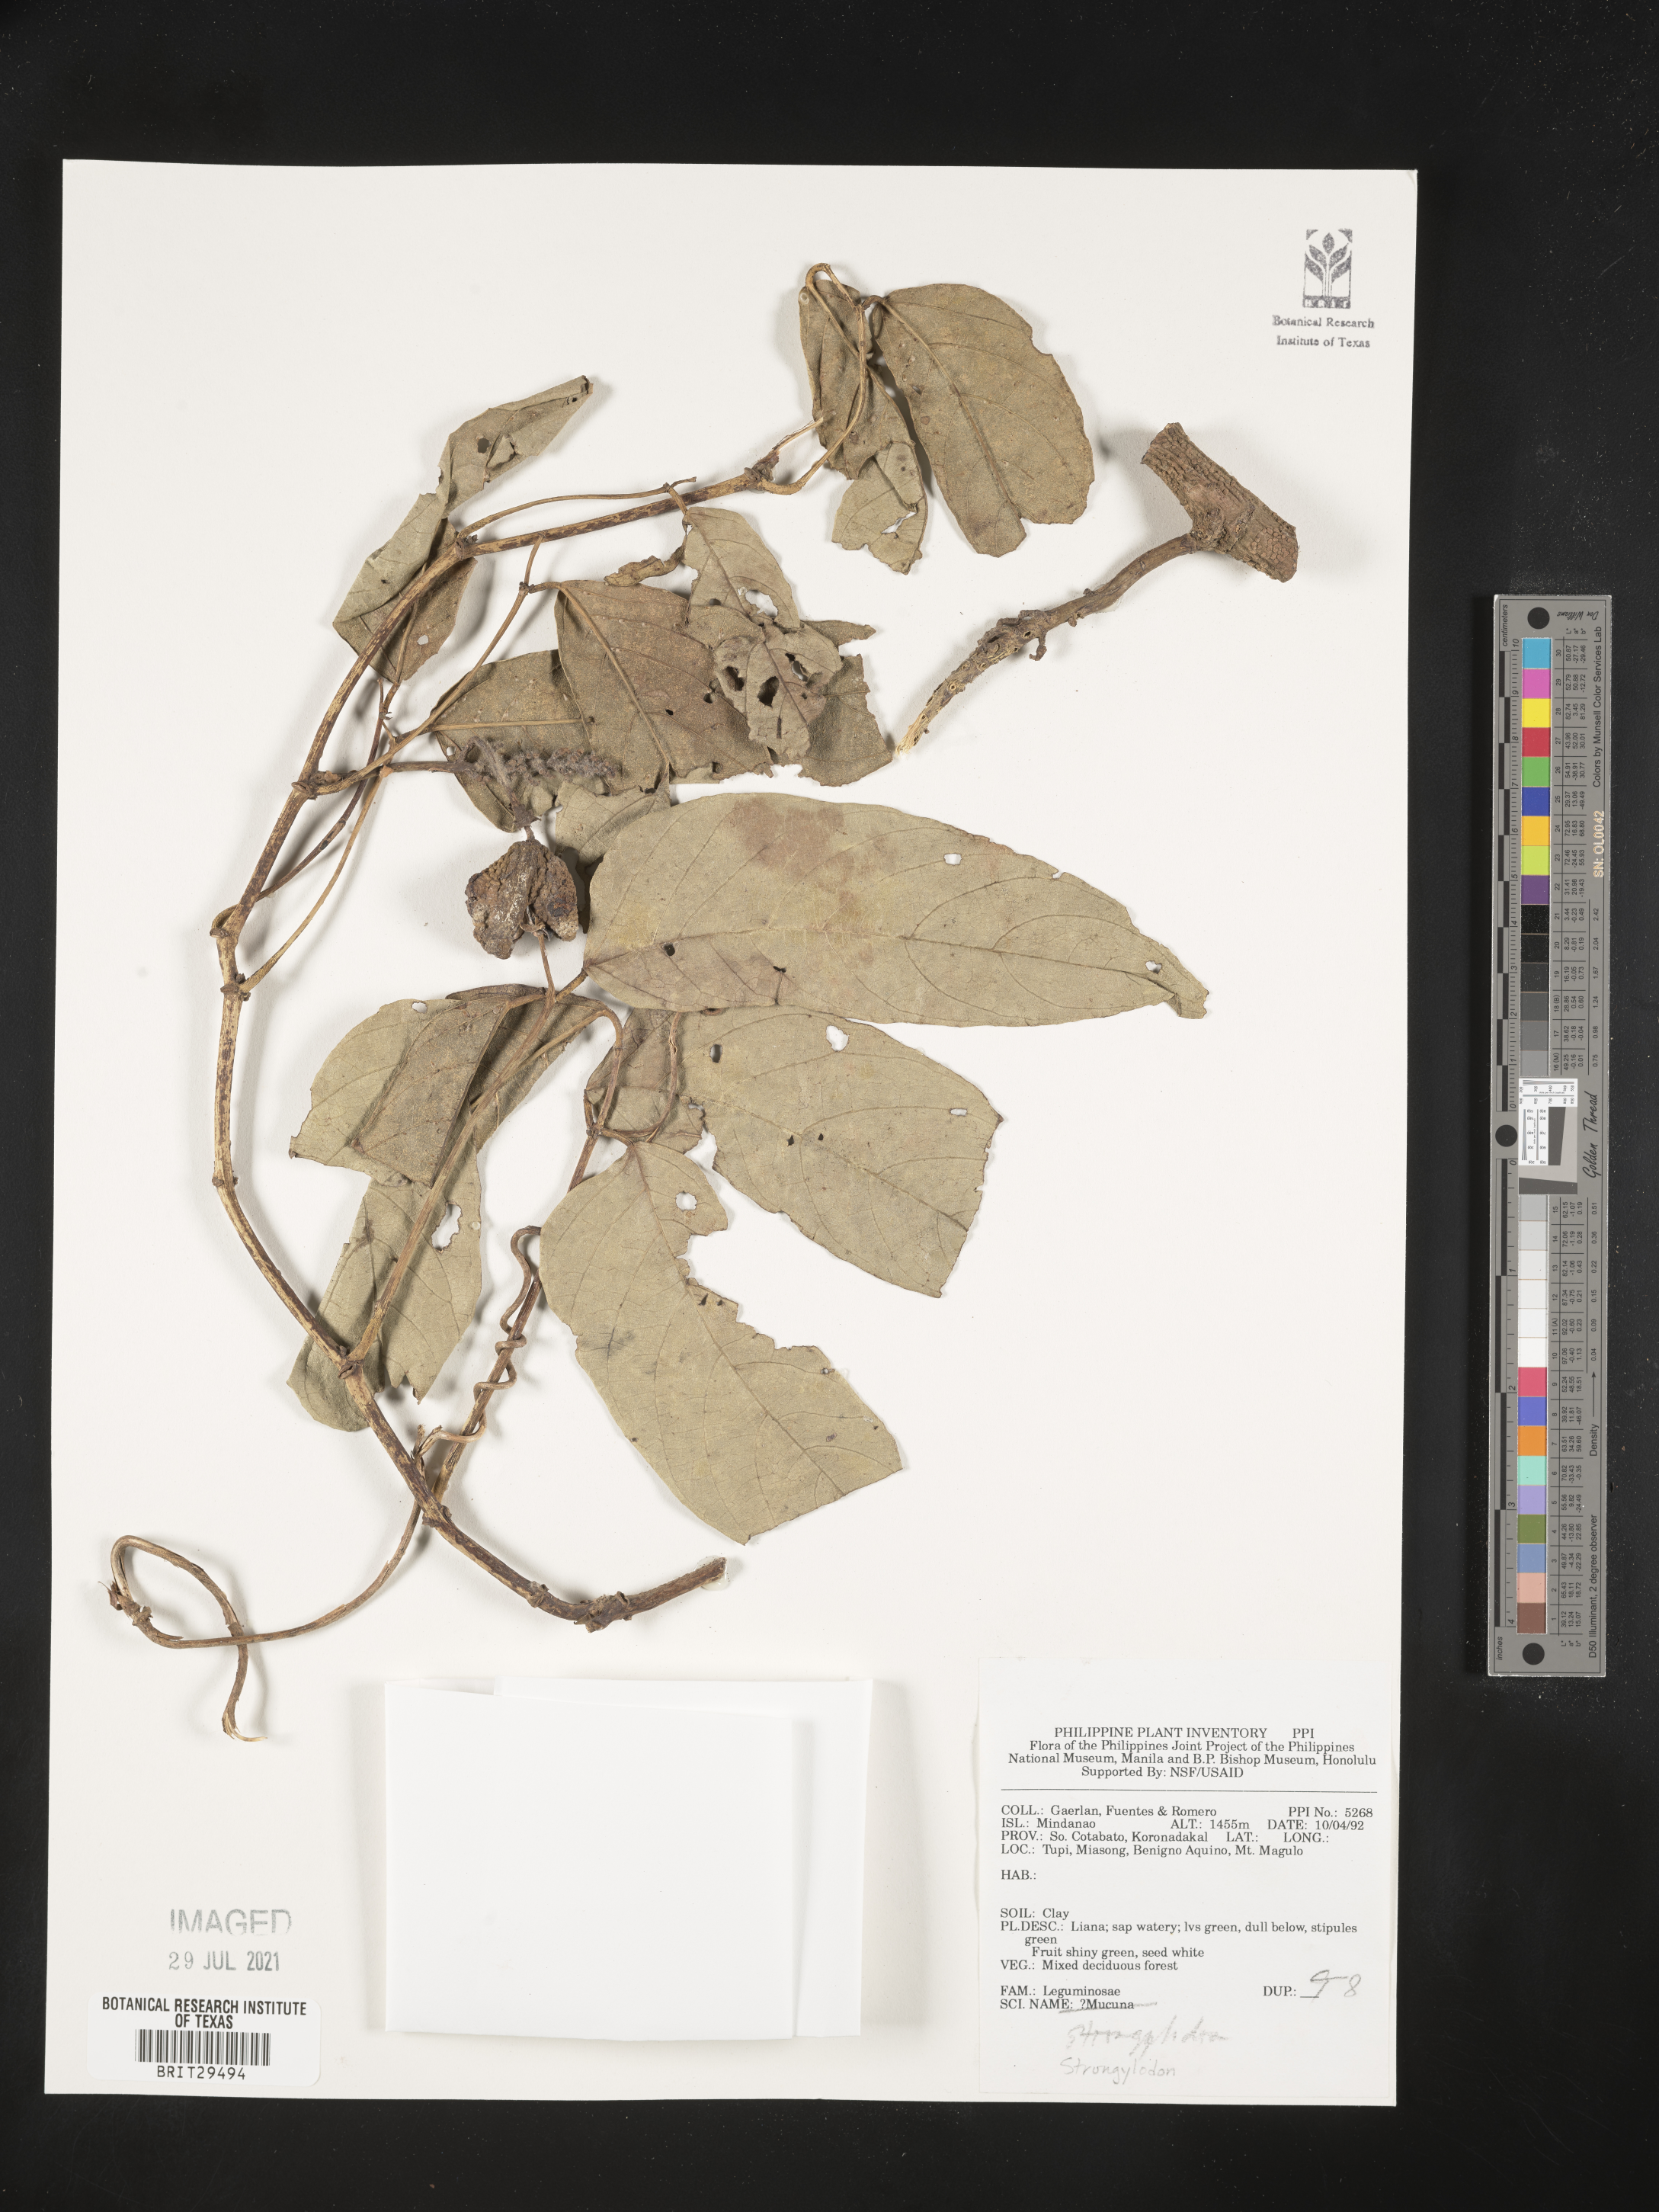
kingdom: Plantae
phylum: Tracheophyta
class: Magnoliopsida
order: Fabales
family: Fabaceae
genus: Strongylodon
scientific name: Strongylodon
